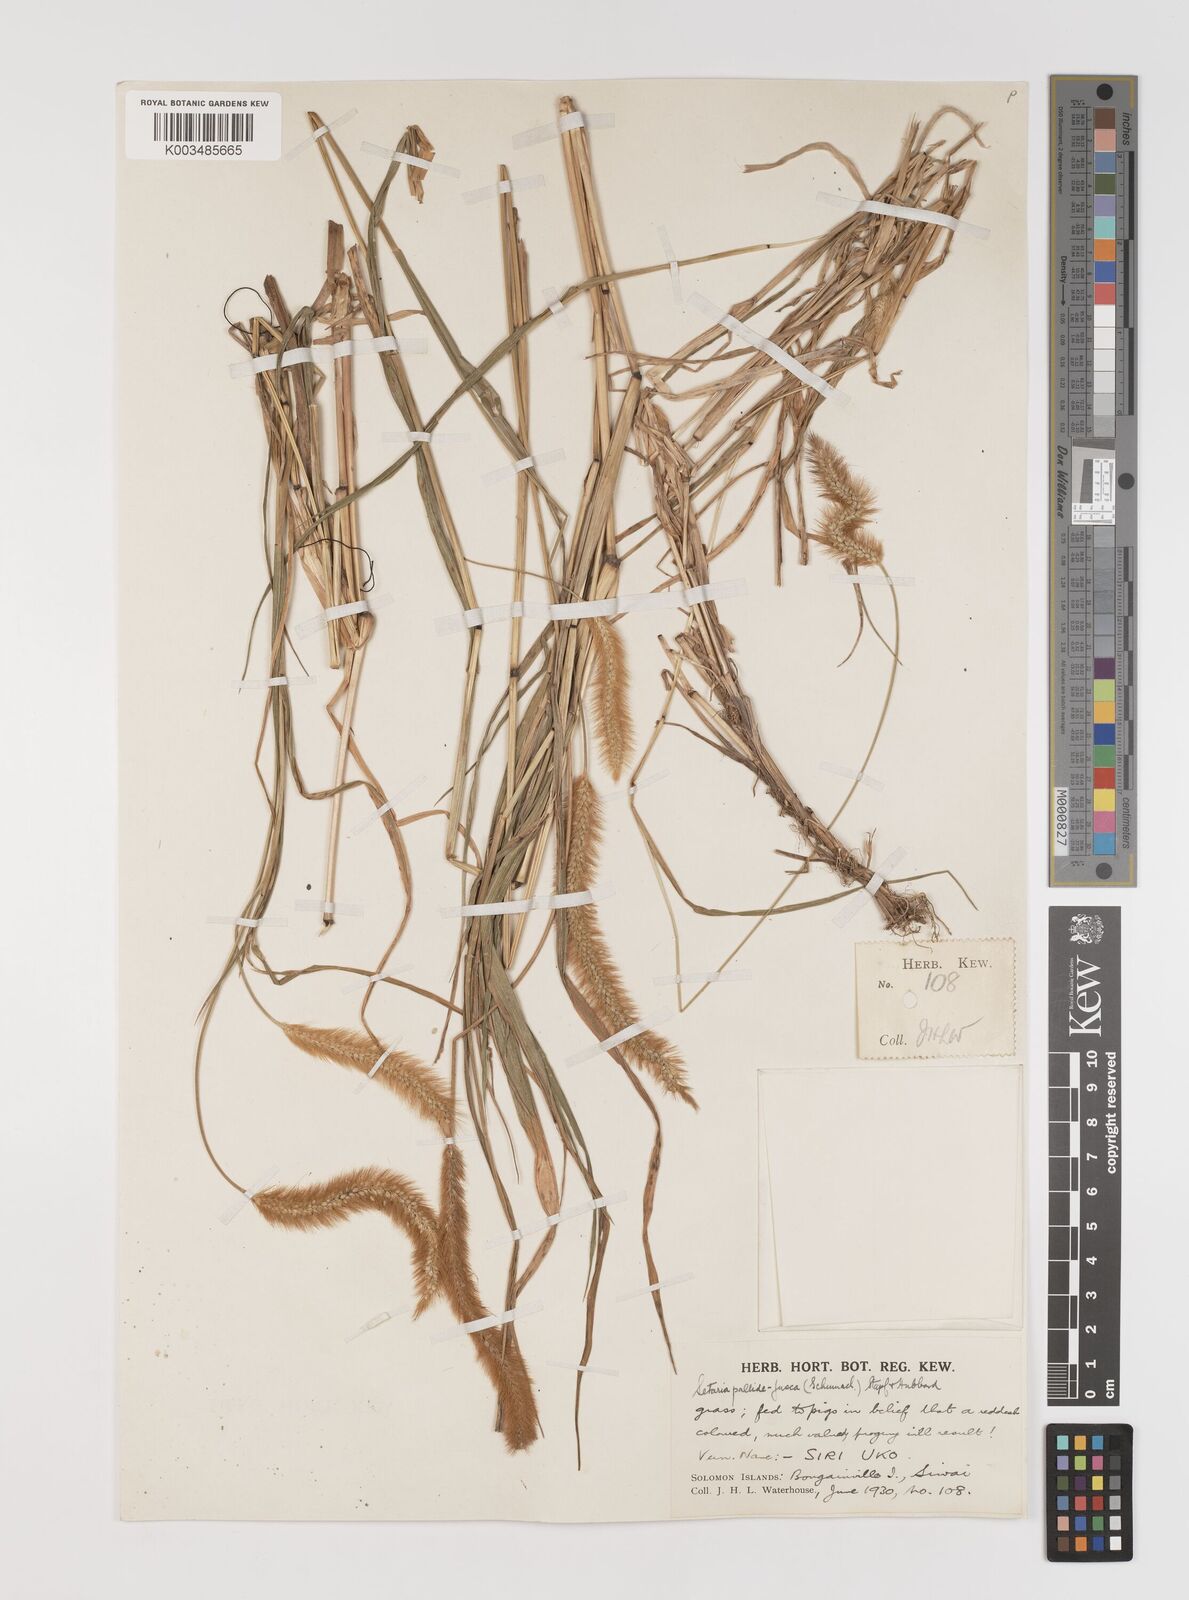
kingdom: Plantae
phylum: Tracheophyta
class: Liliopsida
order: Poales
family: Poaceae
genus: Setaria
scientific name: Setaria parviflora
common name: Knotroot bristle-grass
